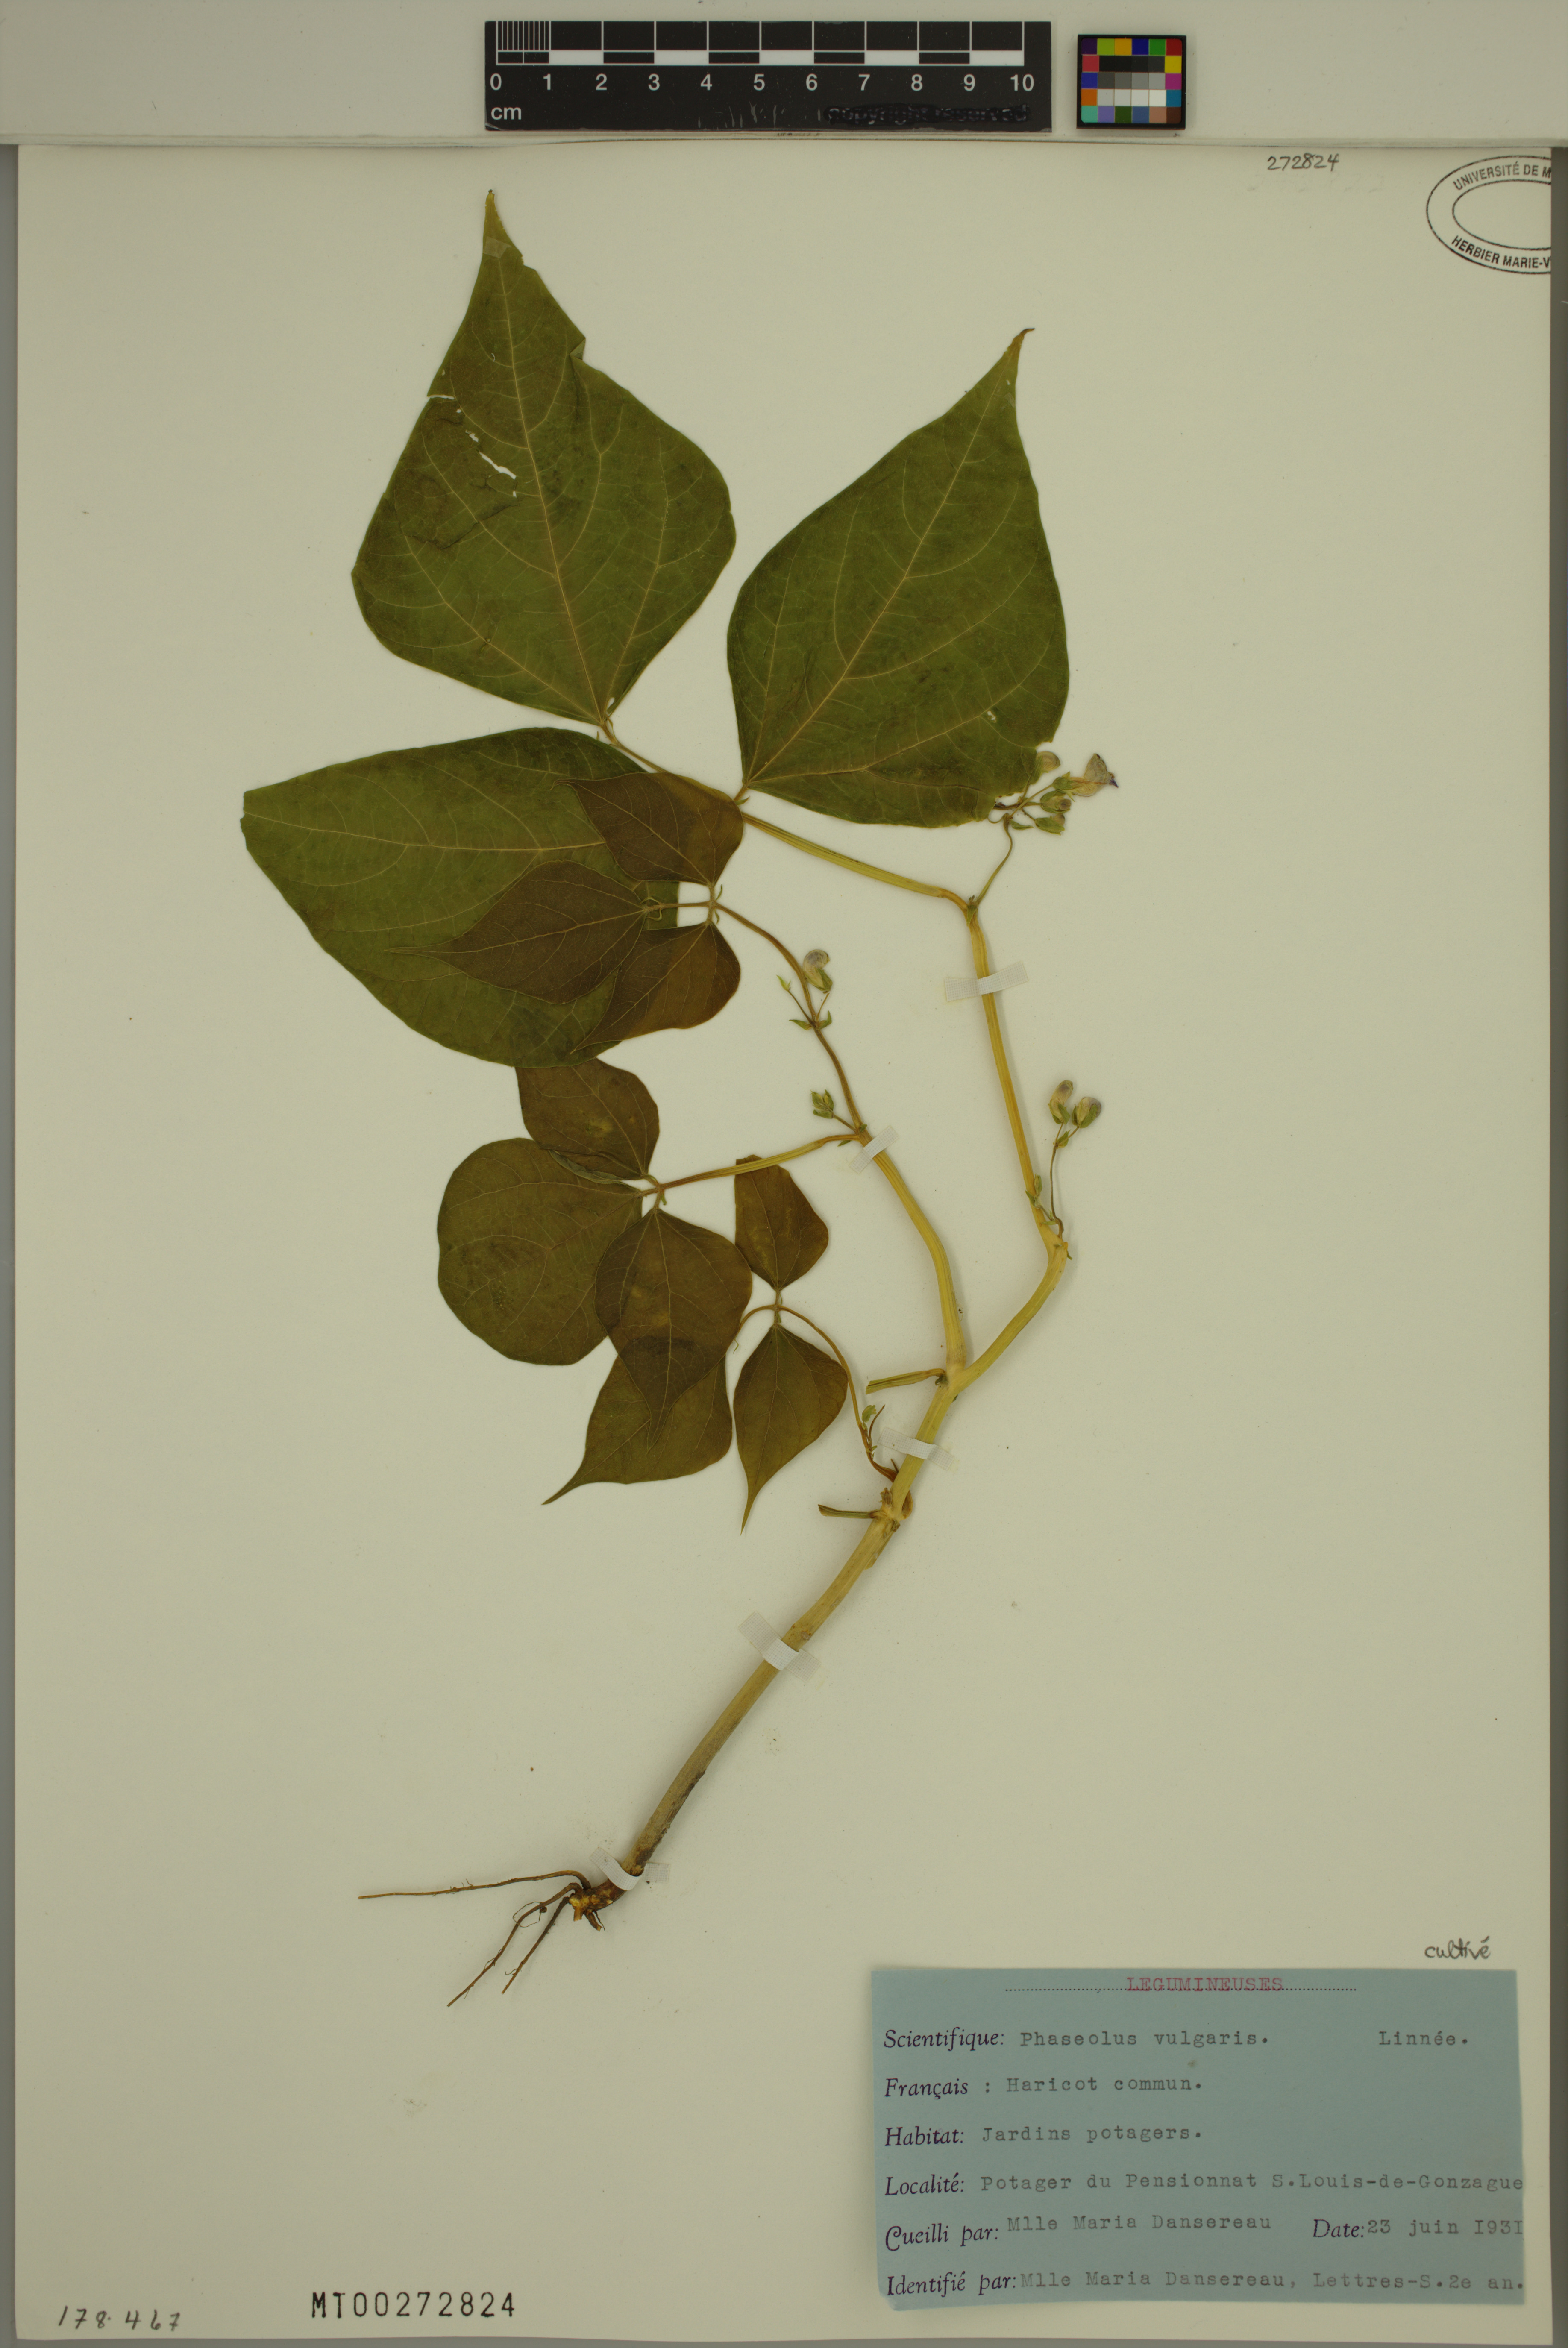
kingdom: Plantae
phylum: Tracheophyta
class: Magnoliopsida
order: Fabales
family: Fabaceae
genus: Phaseolus
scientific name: Phaseolus vulgaris
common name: Bean
